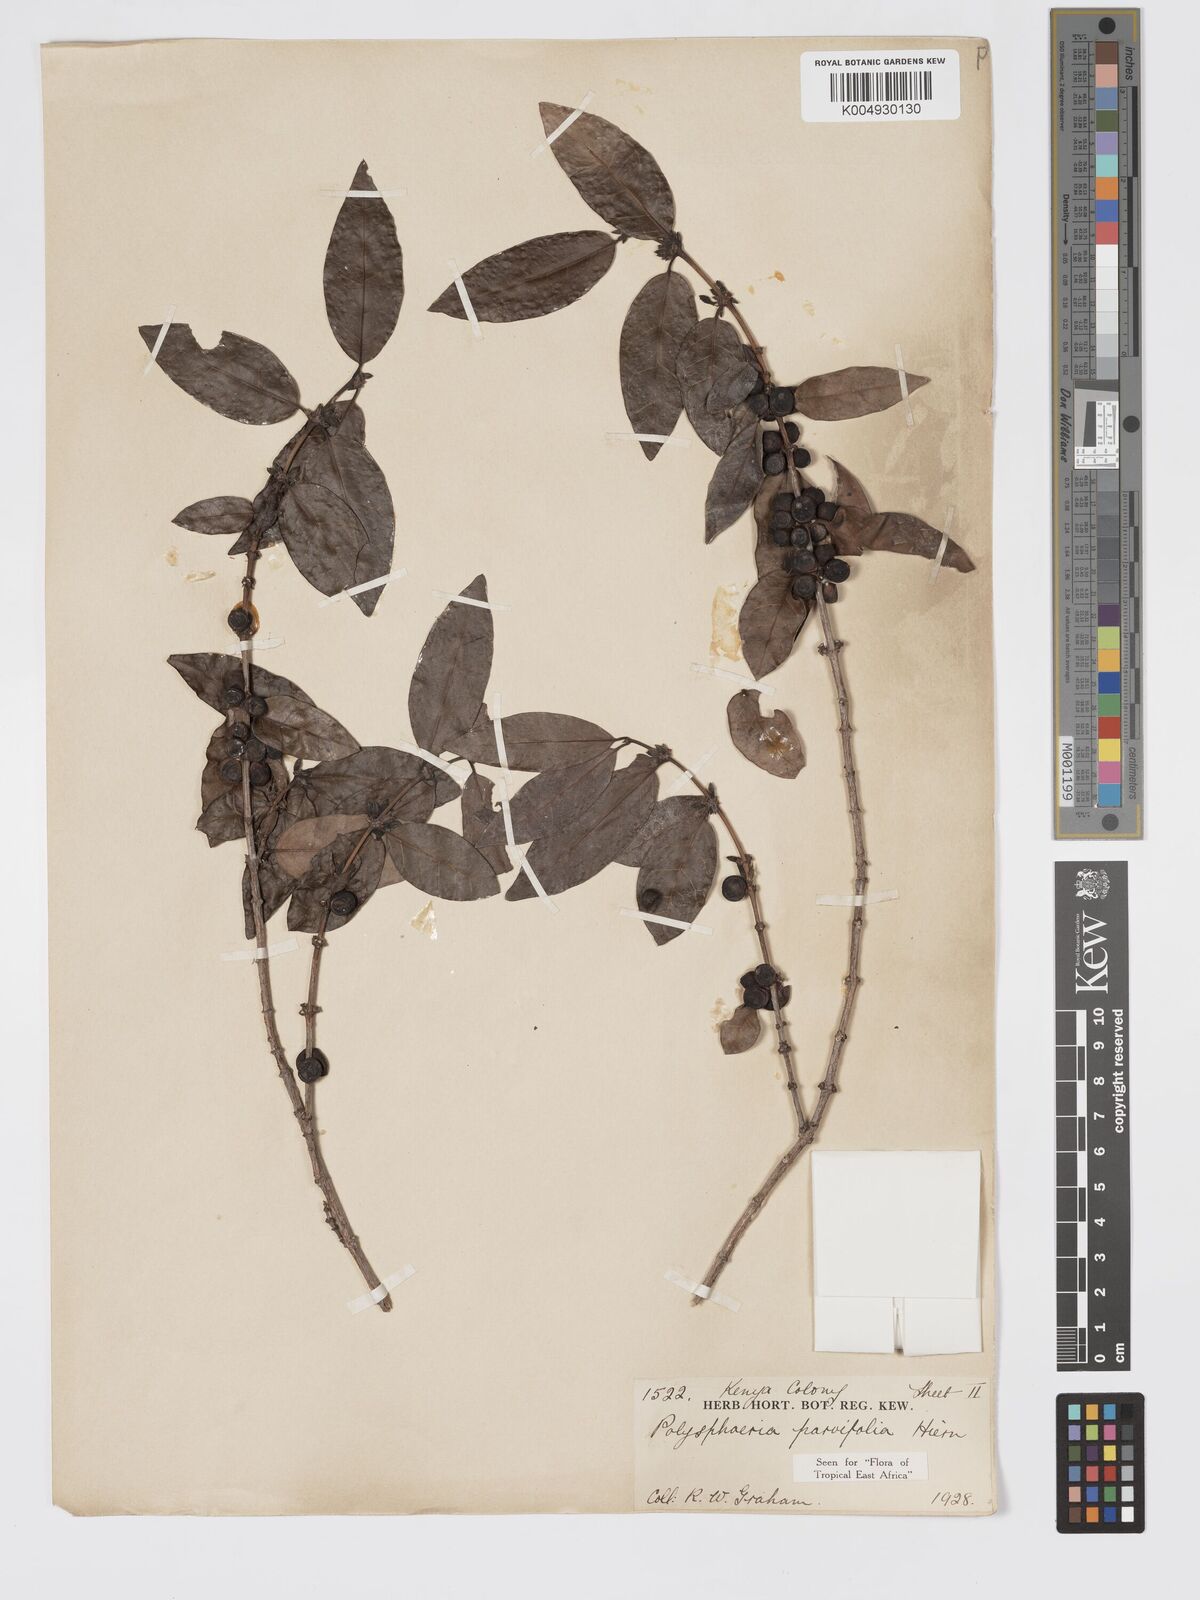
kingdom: Plantae
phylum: Tracheophyta
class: Magnoliopsida
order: Gentianales
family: Rubiaceae
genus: Polysphaeria
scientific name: Polysphaeria parvifolia
